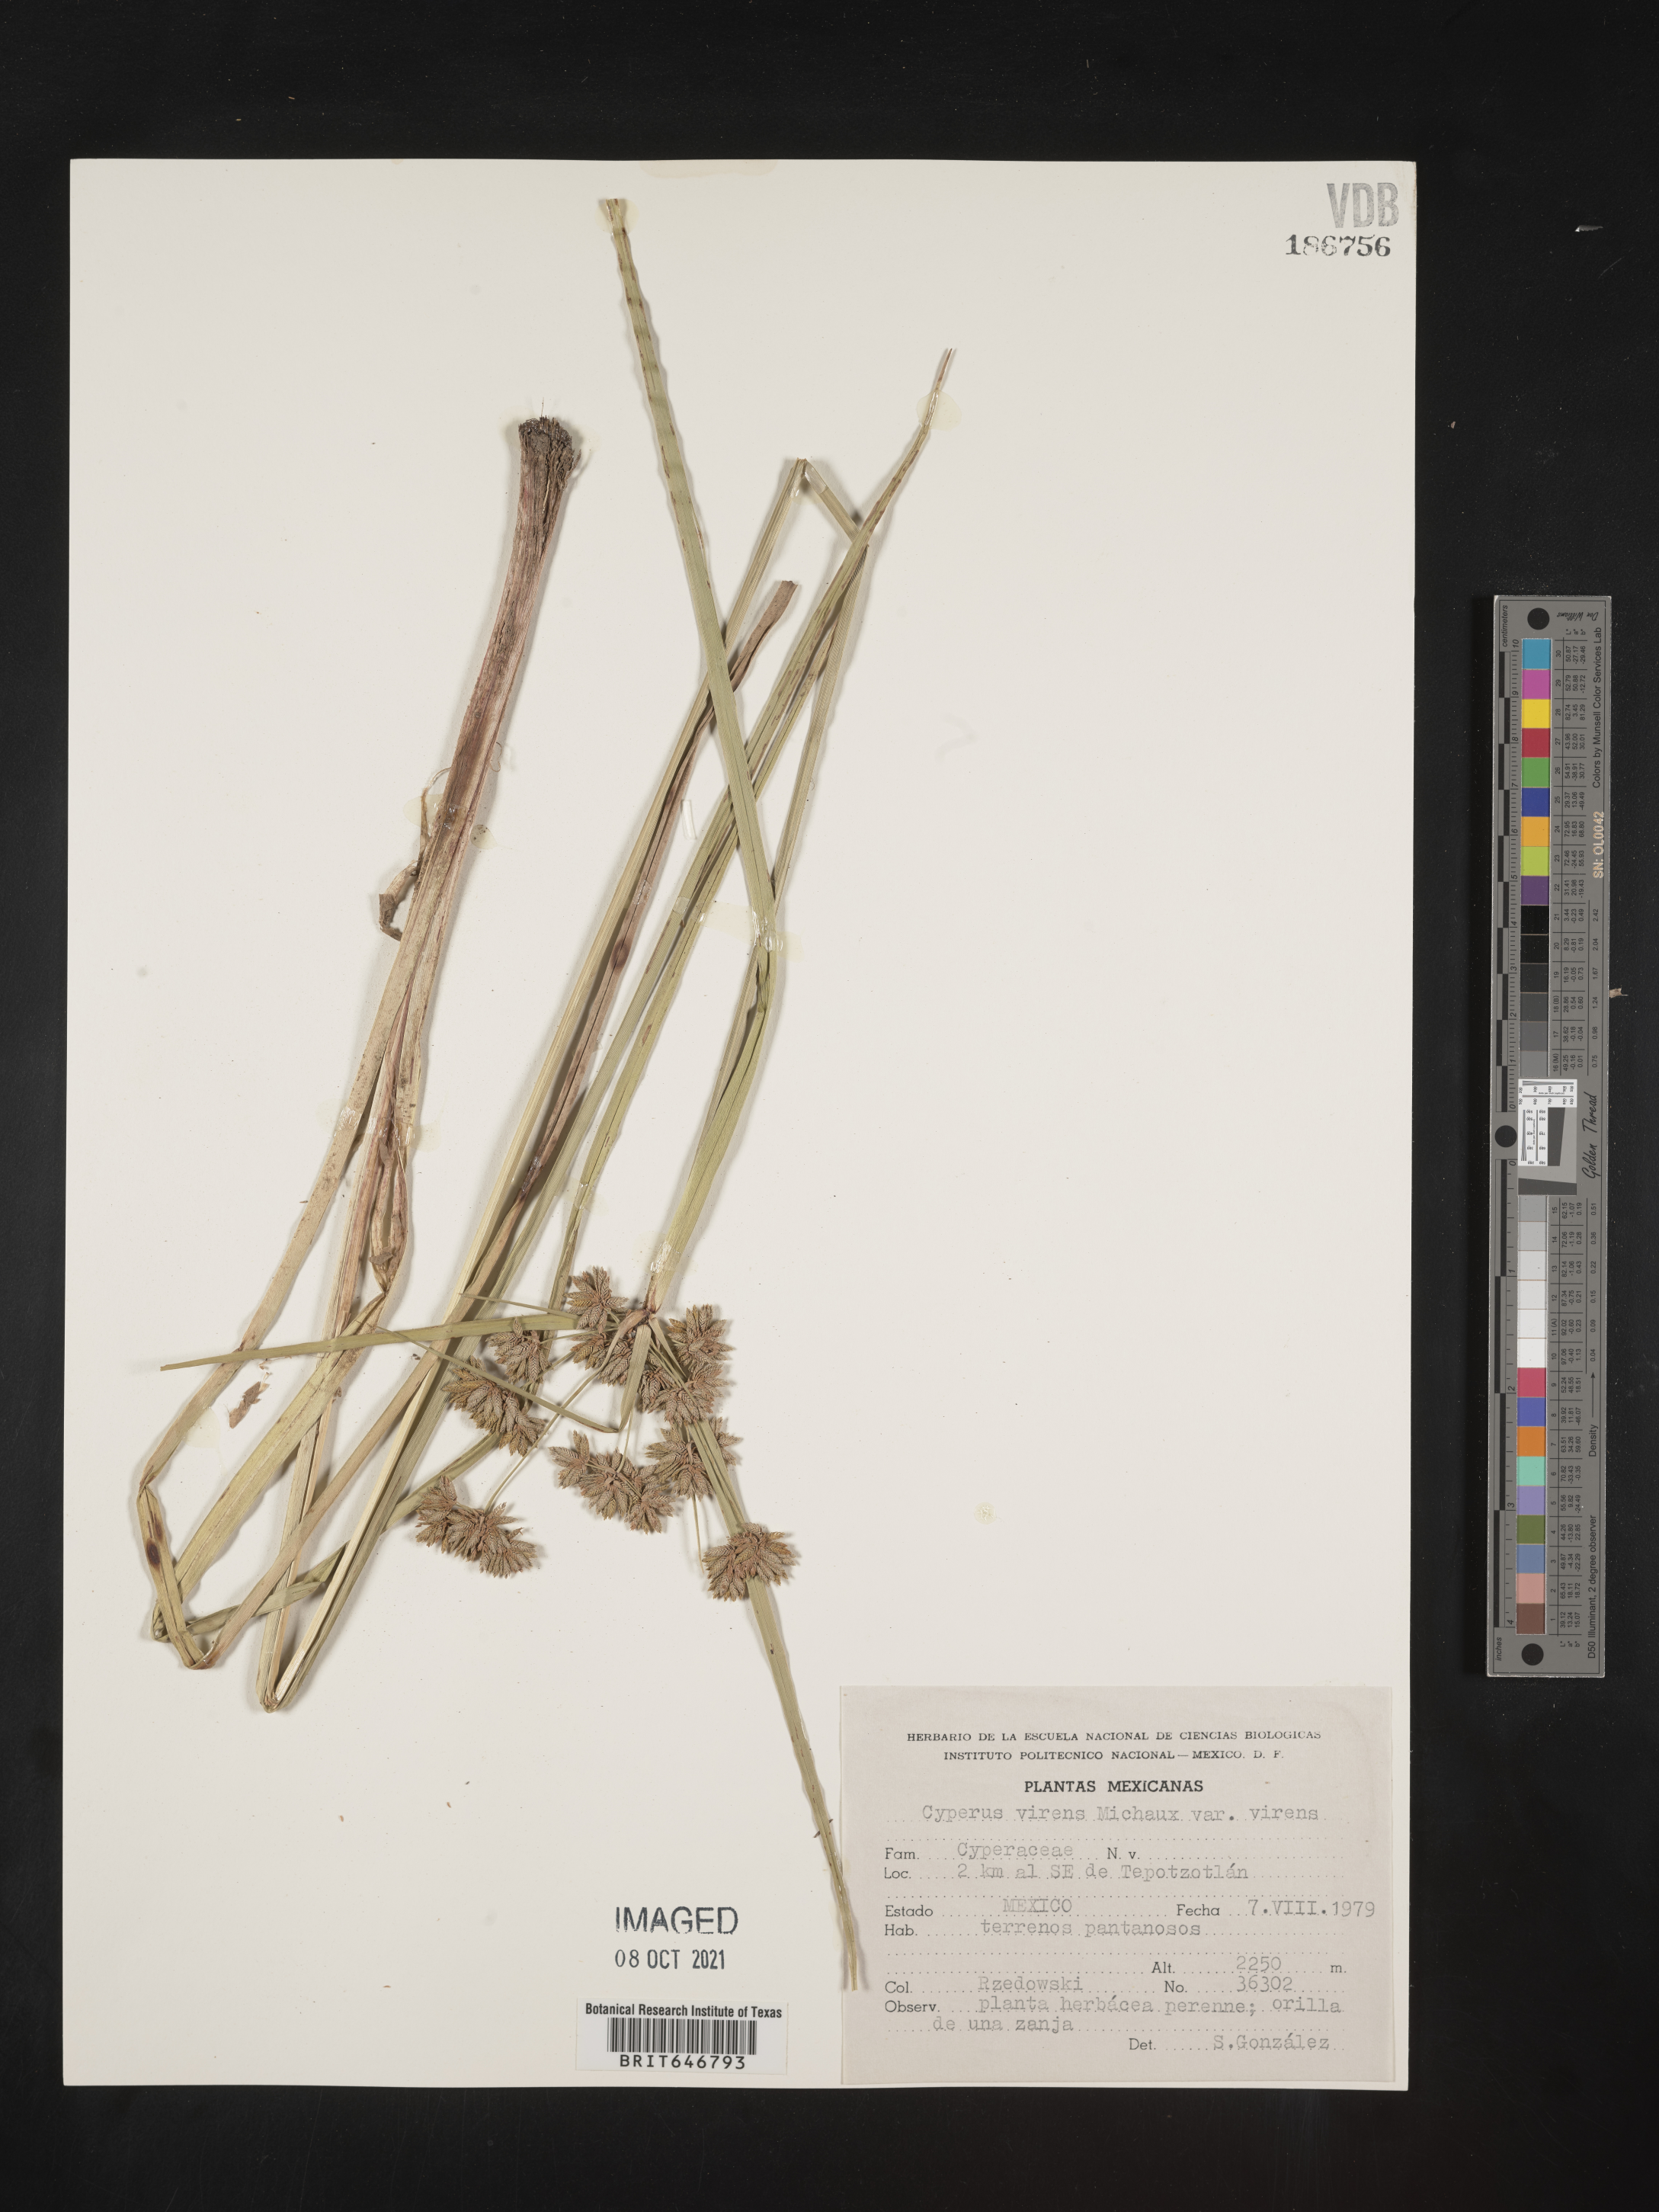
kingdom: Plantae
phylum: Tracheophyta
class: Liliopsida
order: Poales
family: Cyperaceae
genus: Cyperus
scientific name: Cyperus
